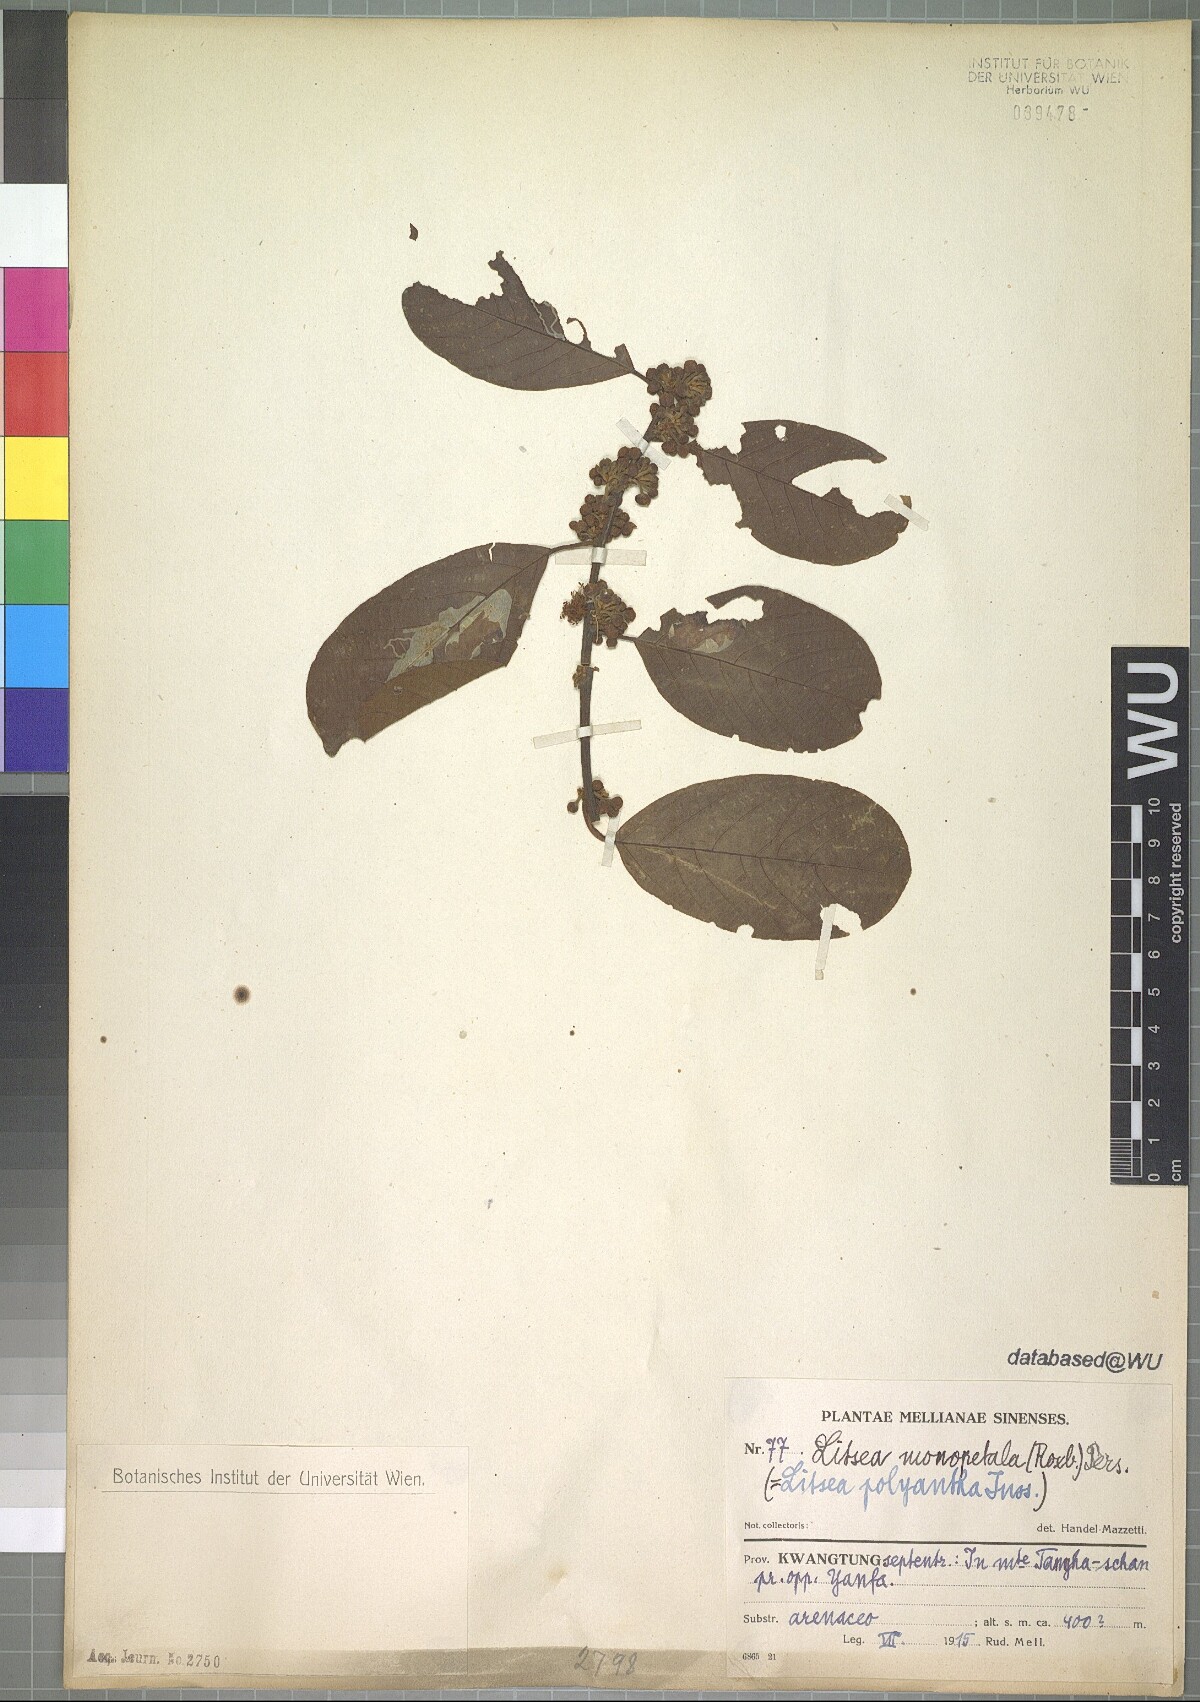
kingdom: Plantae
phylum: Tracheophyta
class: Magnoliopsida
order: Laurales
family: Lauraceae
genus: Litsea
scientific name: Litsea monopetala
